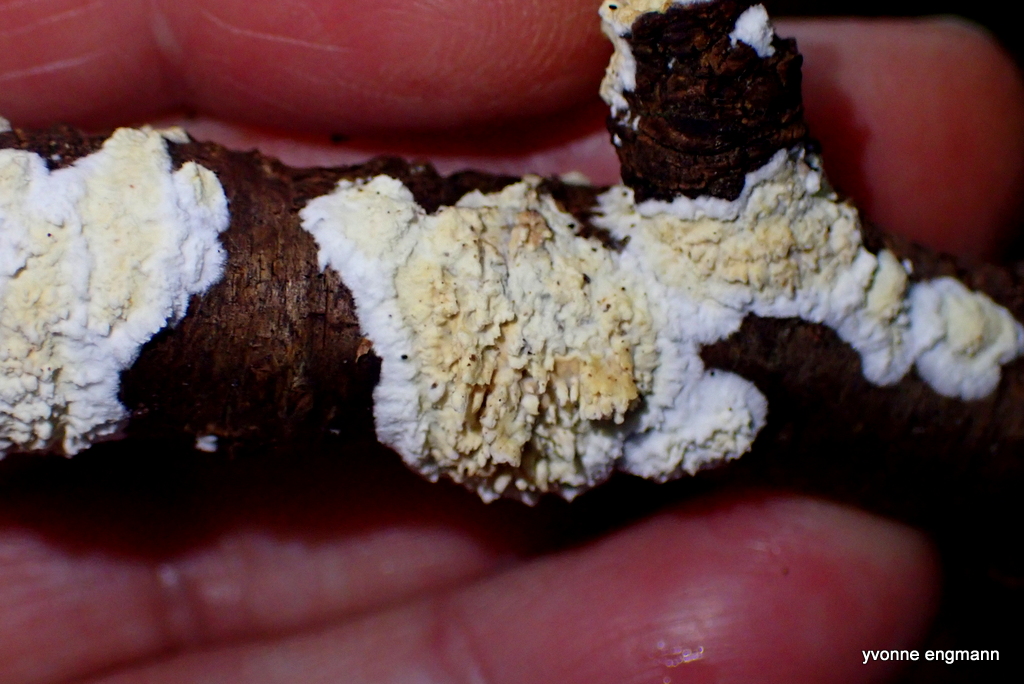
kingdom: Fungi
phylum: Basidiomycota
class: Agaricomycetes
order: Polyporales
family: Irpicaceae
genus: Byssomerulius
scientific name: Byssomerulius corium
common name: læder-åresvamp
